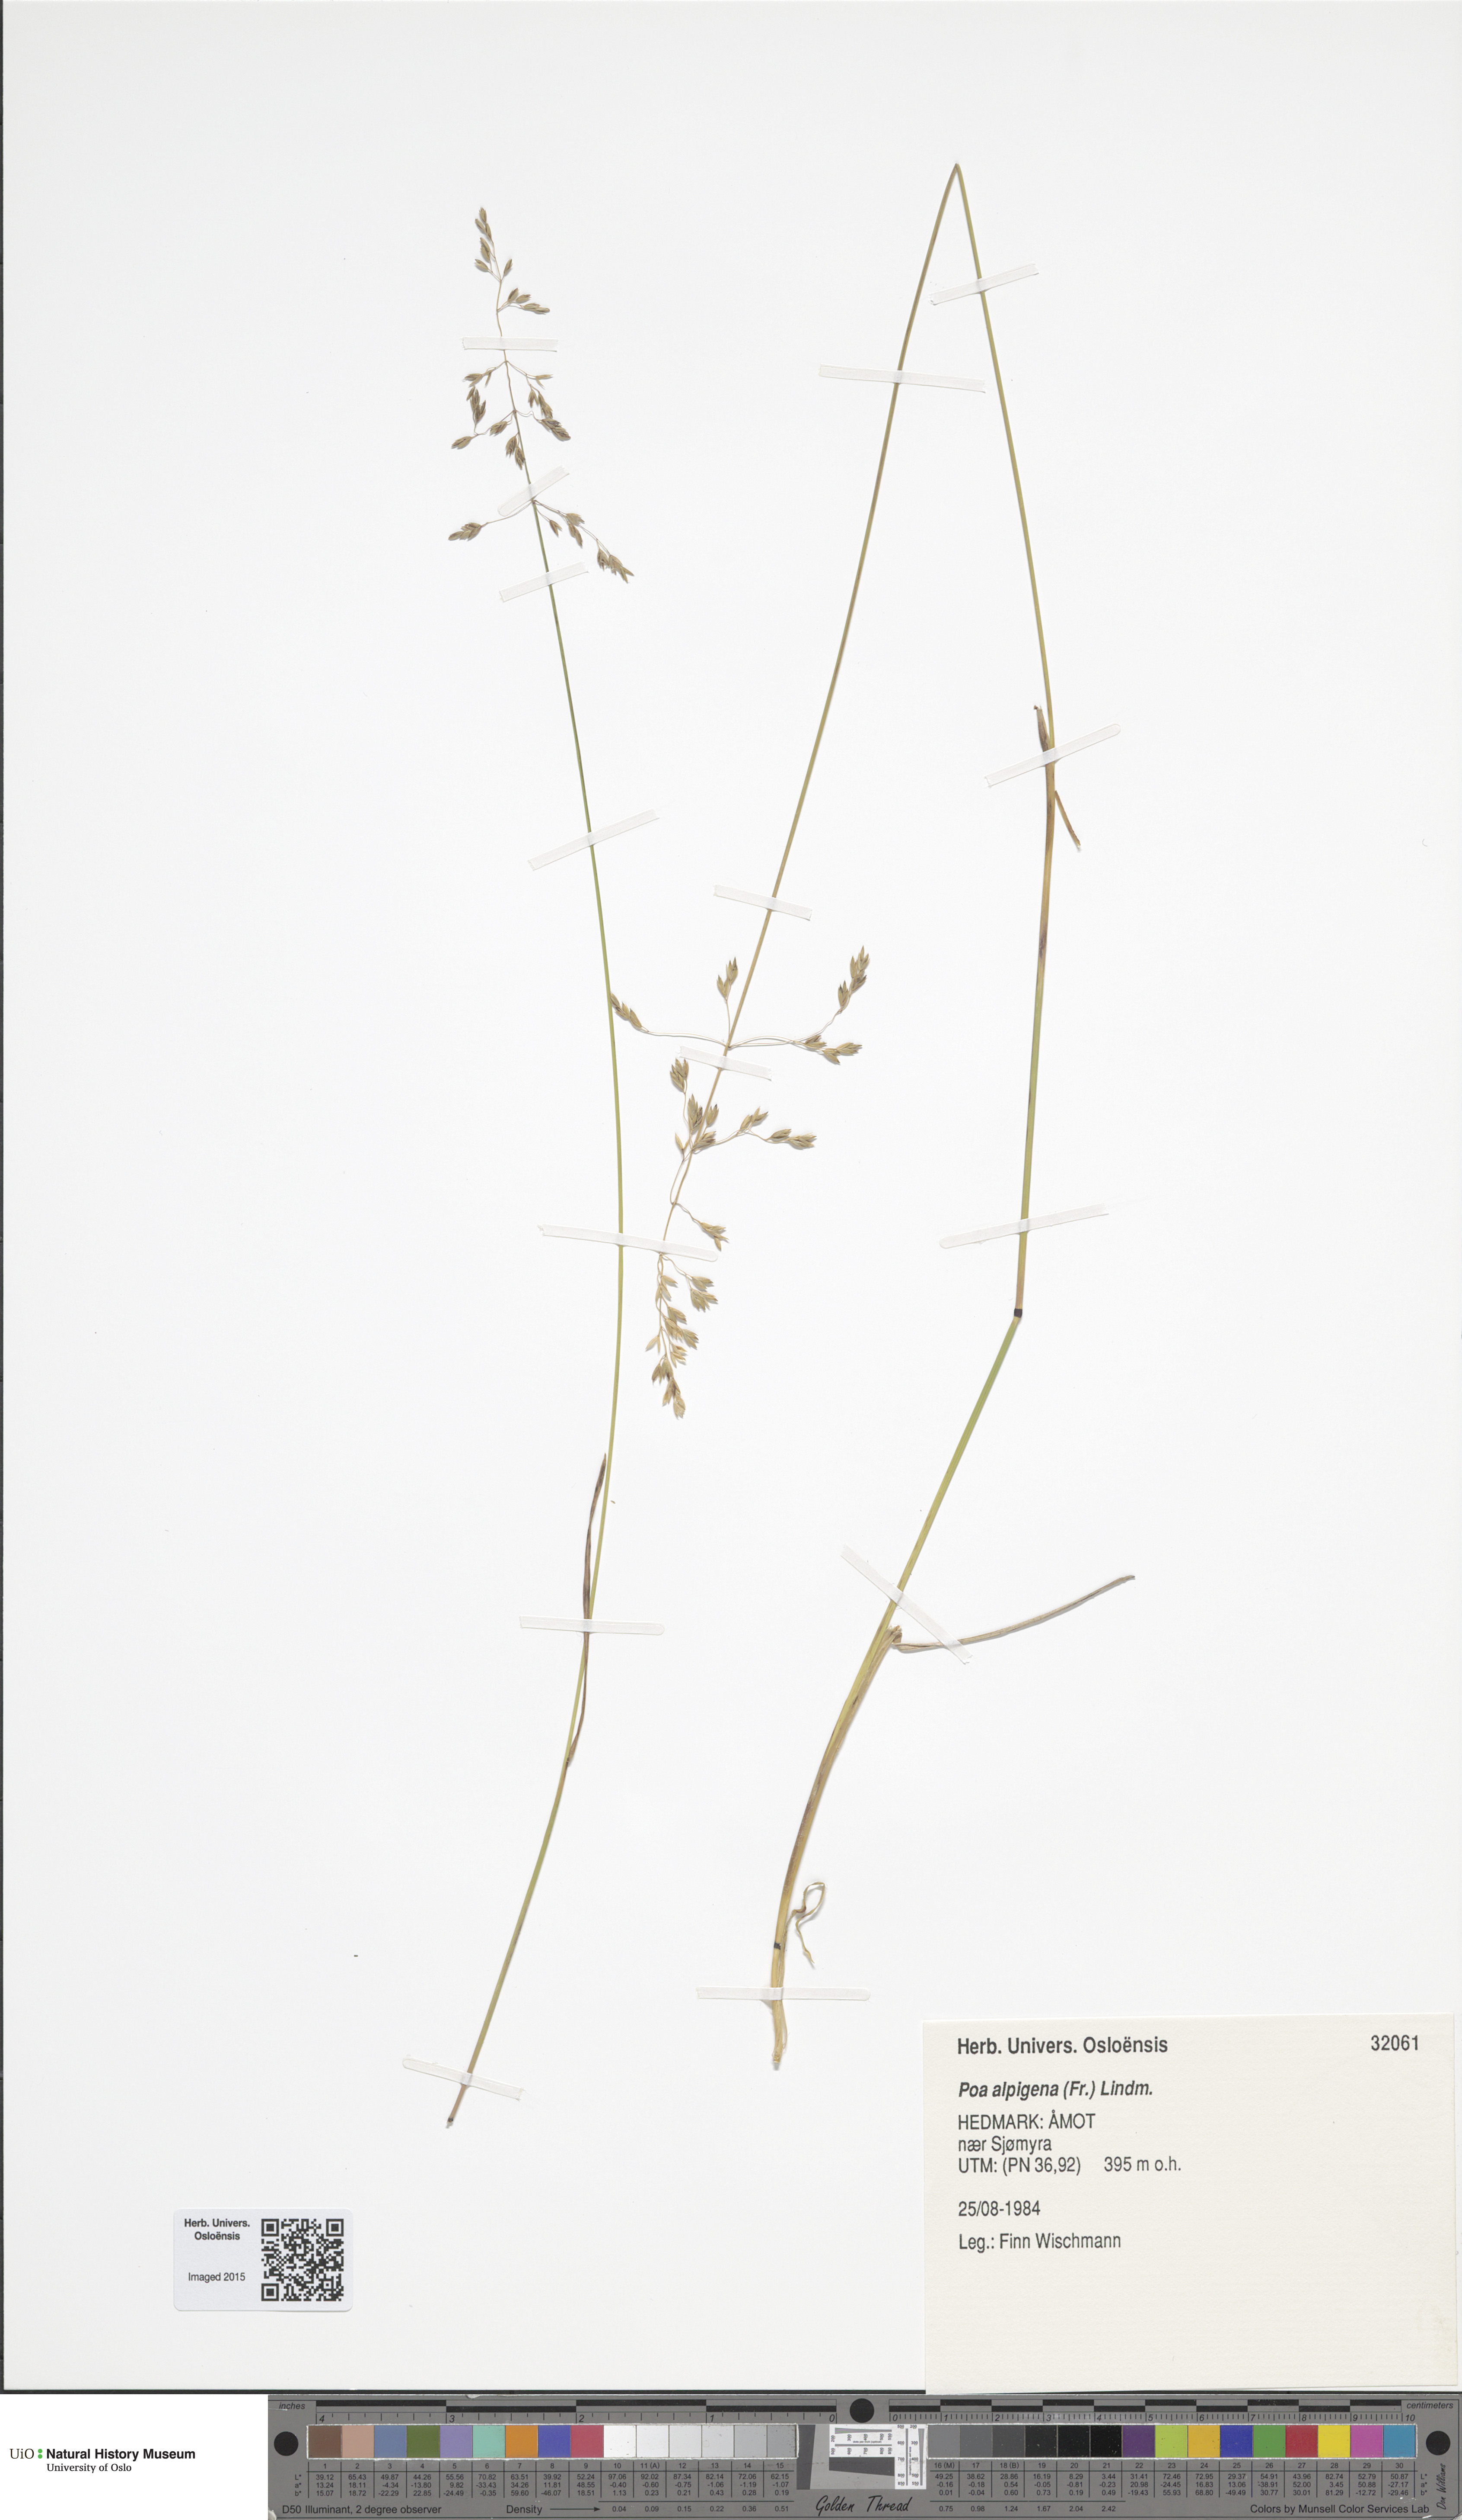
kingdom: Plantae
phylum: Tracheophyta
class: Liliopsida
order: Poales
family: Poaceae
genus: Poa
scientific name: Poa alpigena
